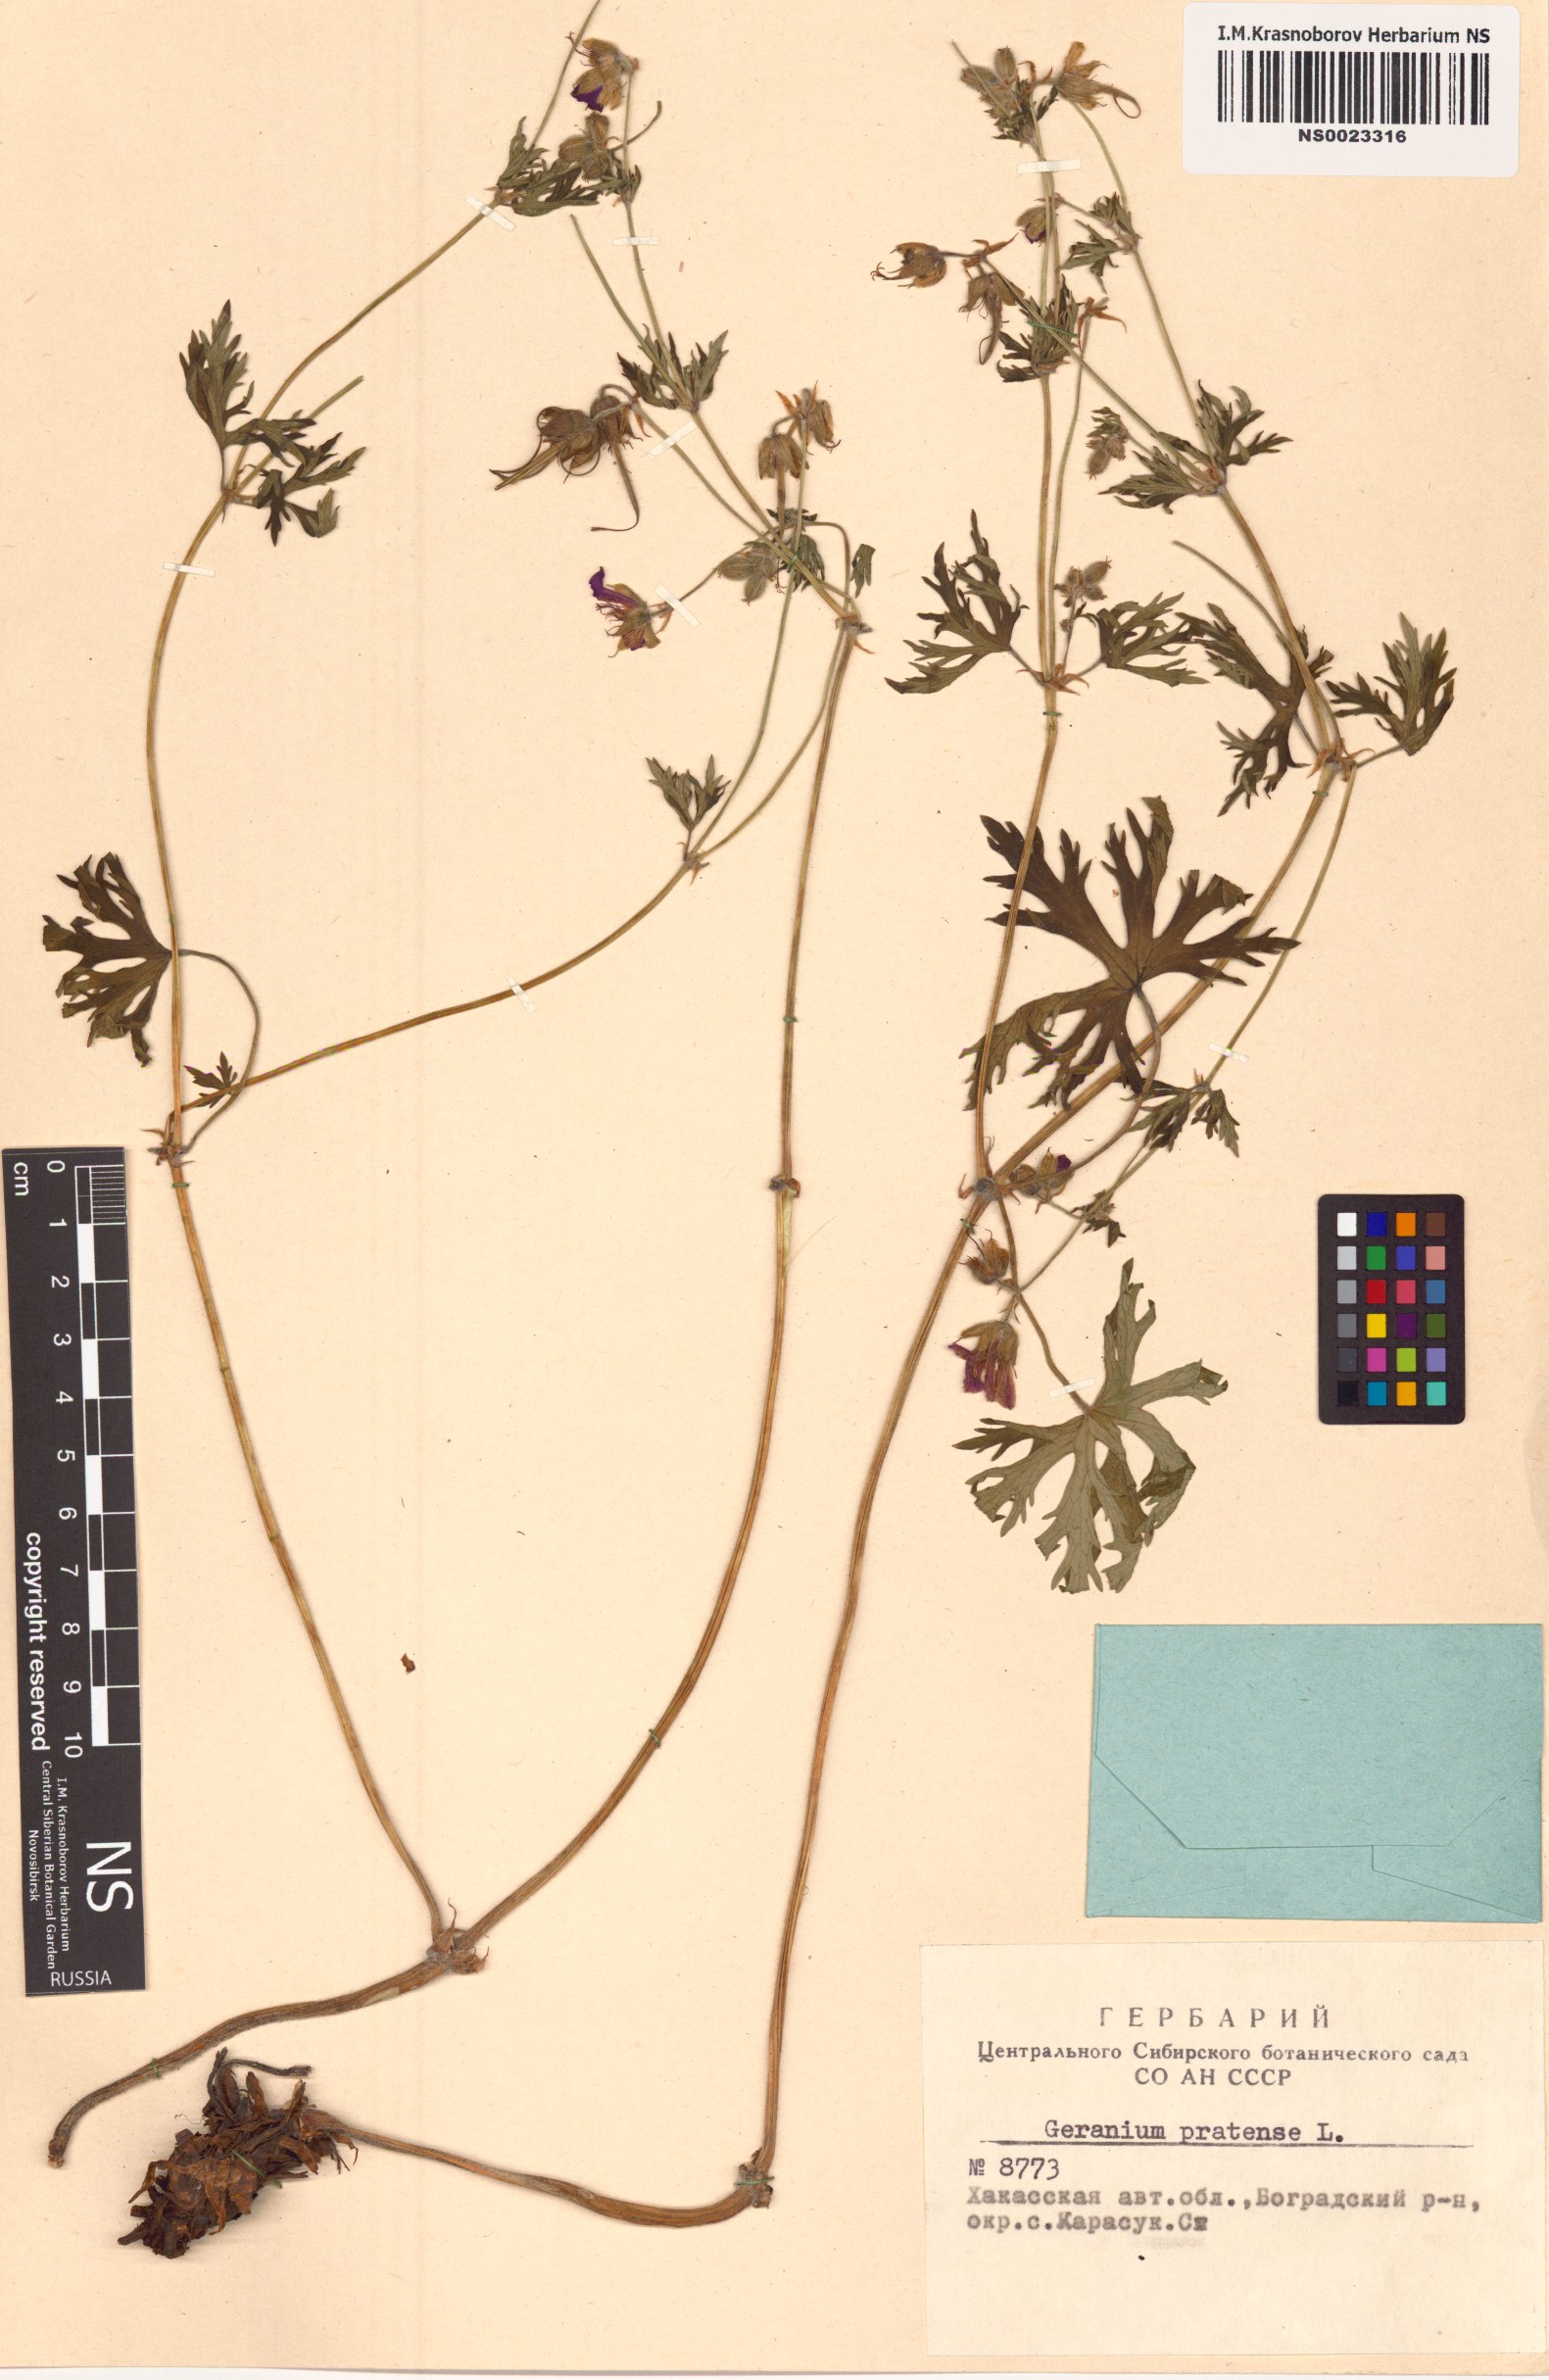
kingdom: Plantae
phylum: Tracheophyta
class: Magnoliopsida
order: Geraniales
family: Geraniaceae
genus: Geranium
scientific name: Geranium pratense
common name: Meadow crane's-bill
